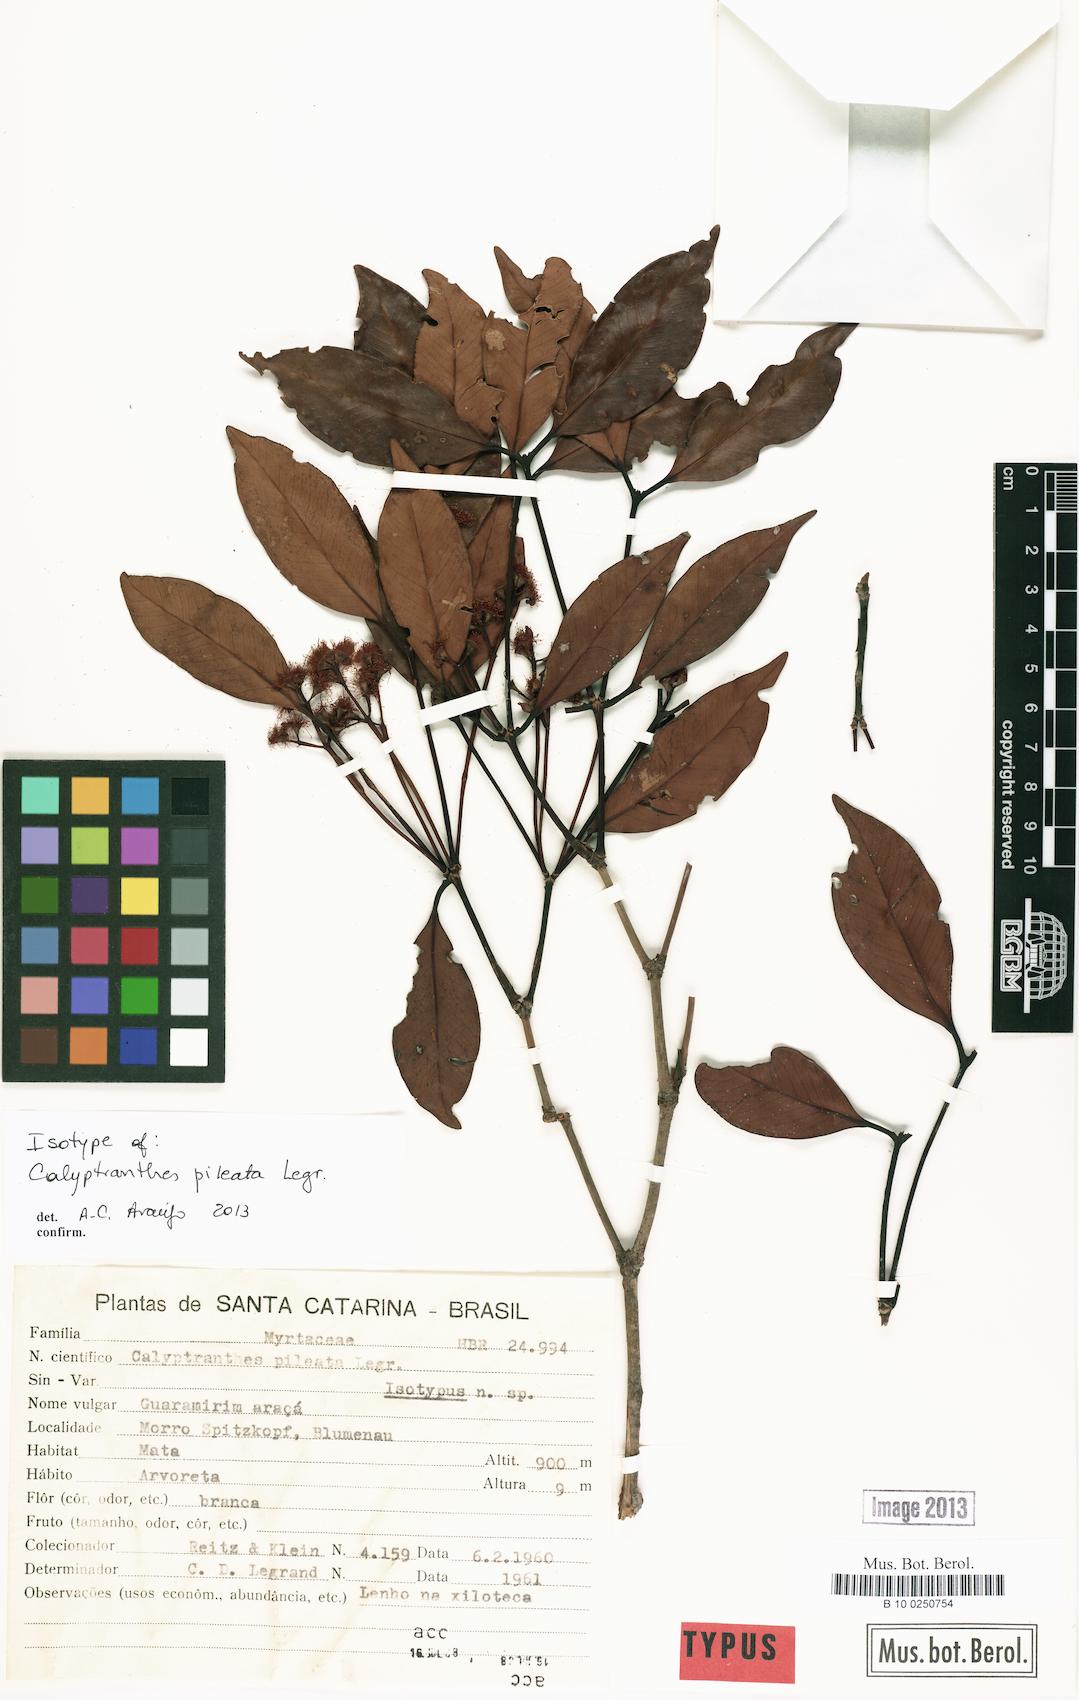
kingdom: Plantae
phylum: Tracheophyta
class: Magnoliopsida
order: Myrtales
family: Myrtaceae
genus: Myrcia
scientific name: Myrcia pileata
